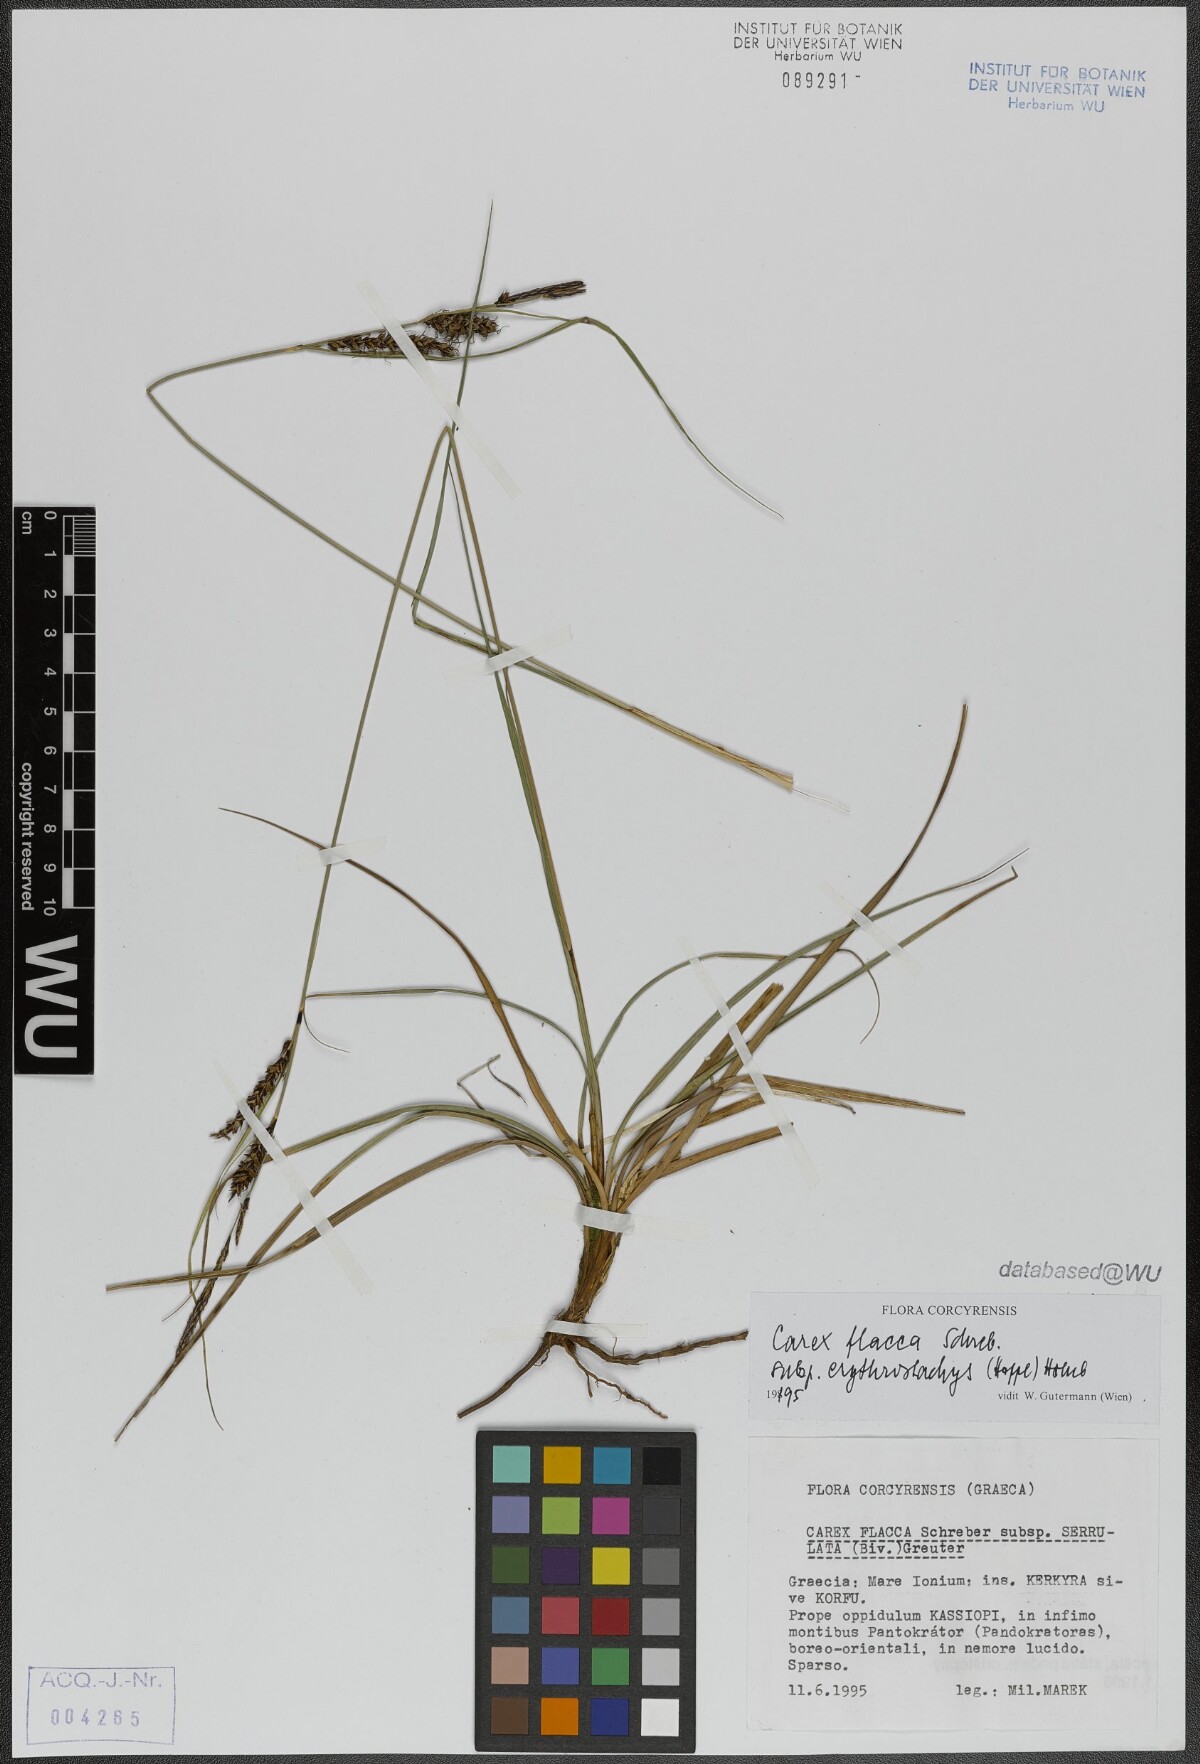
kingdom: Plantae
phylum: Tracheophyta
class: Liliopsida
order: Poales
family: Cyperaceae
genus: Carex
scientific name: Carex flacca
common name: Glaucous sedge
